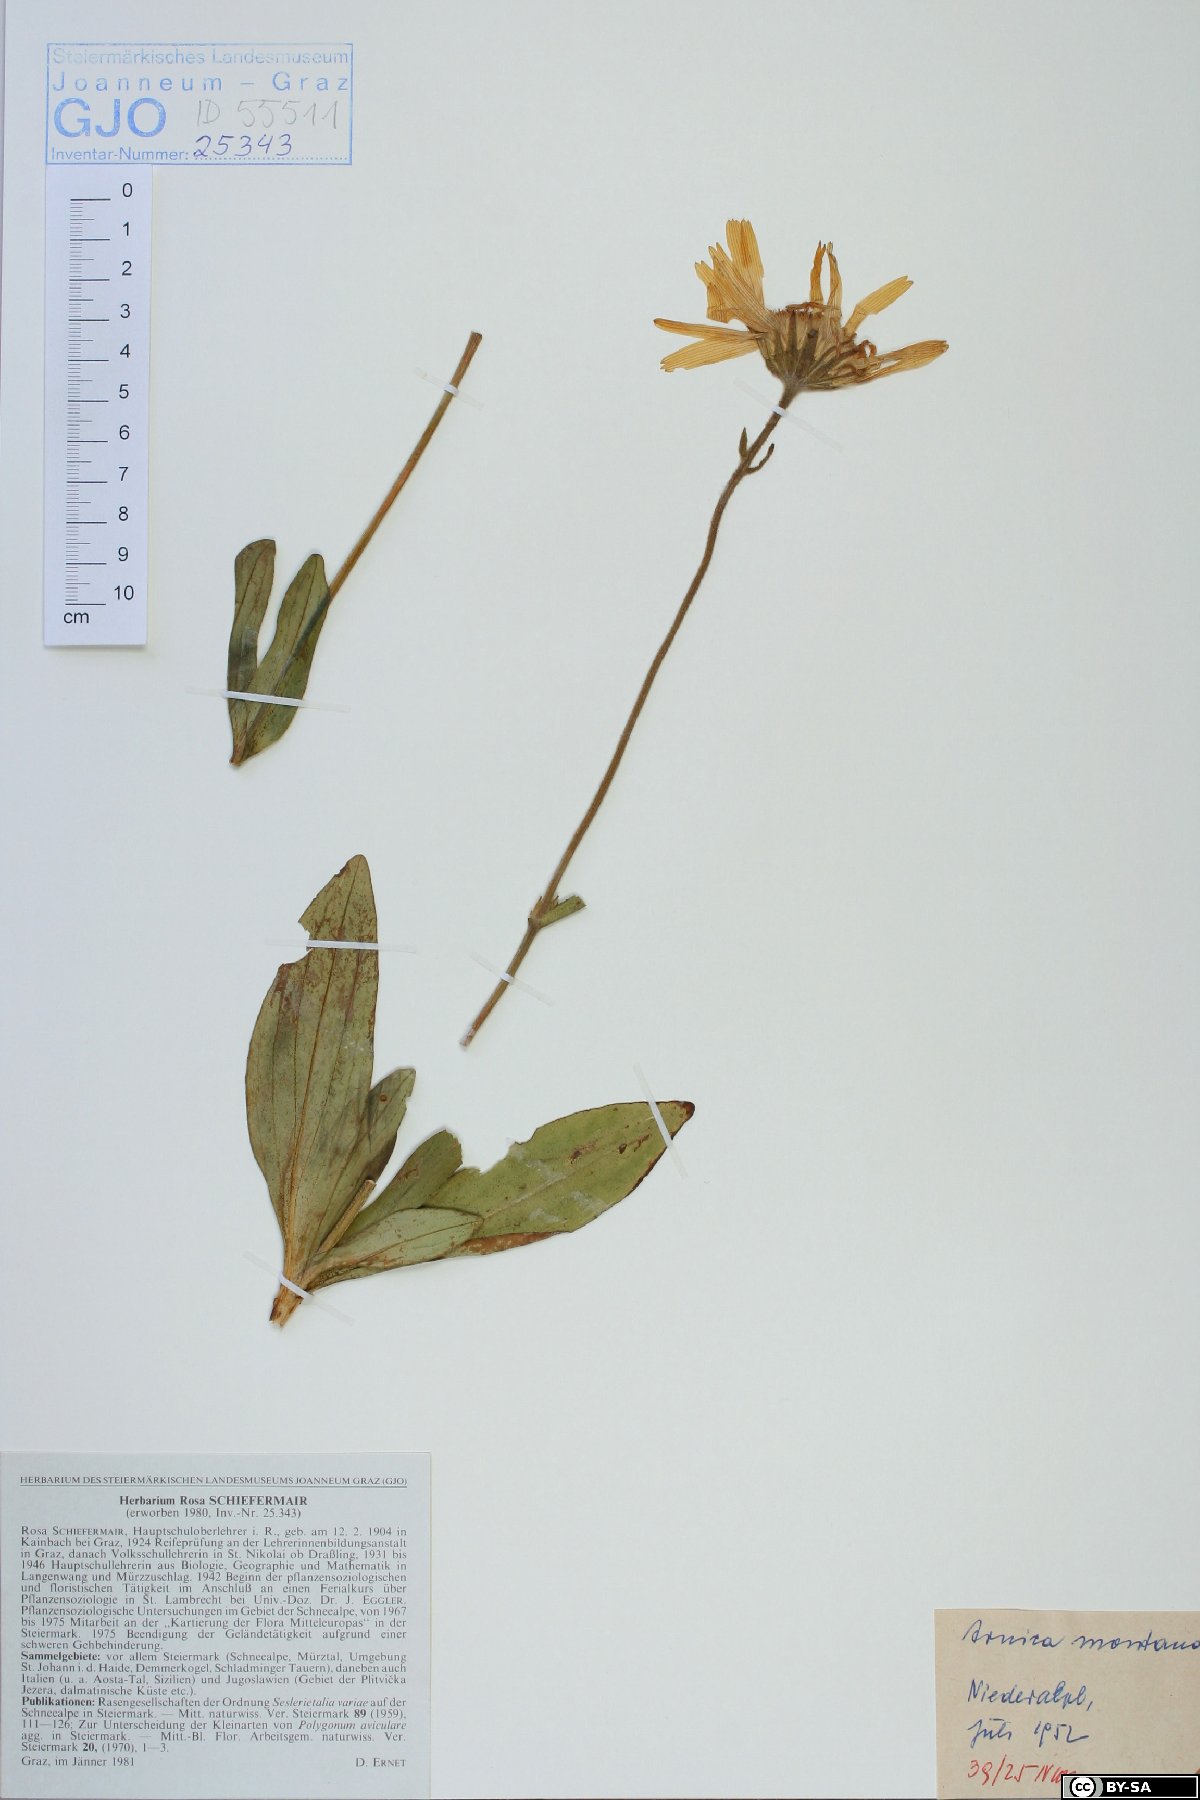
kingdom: Plantae
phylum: Tracheophyta
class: Magnoliopsida
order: Asterales
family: Asteraceae
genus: Arnica
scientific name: Arnica montana
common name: Leopard's bane
